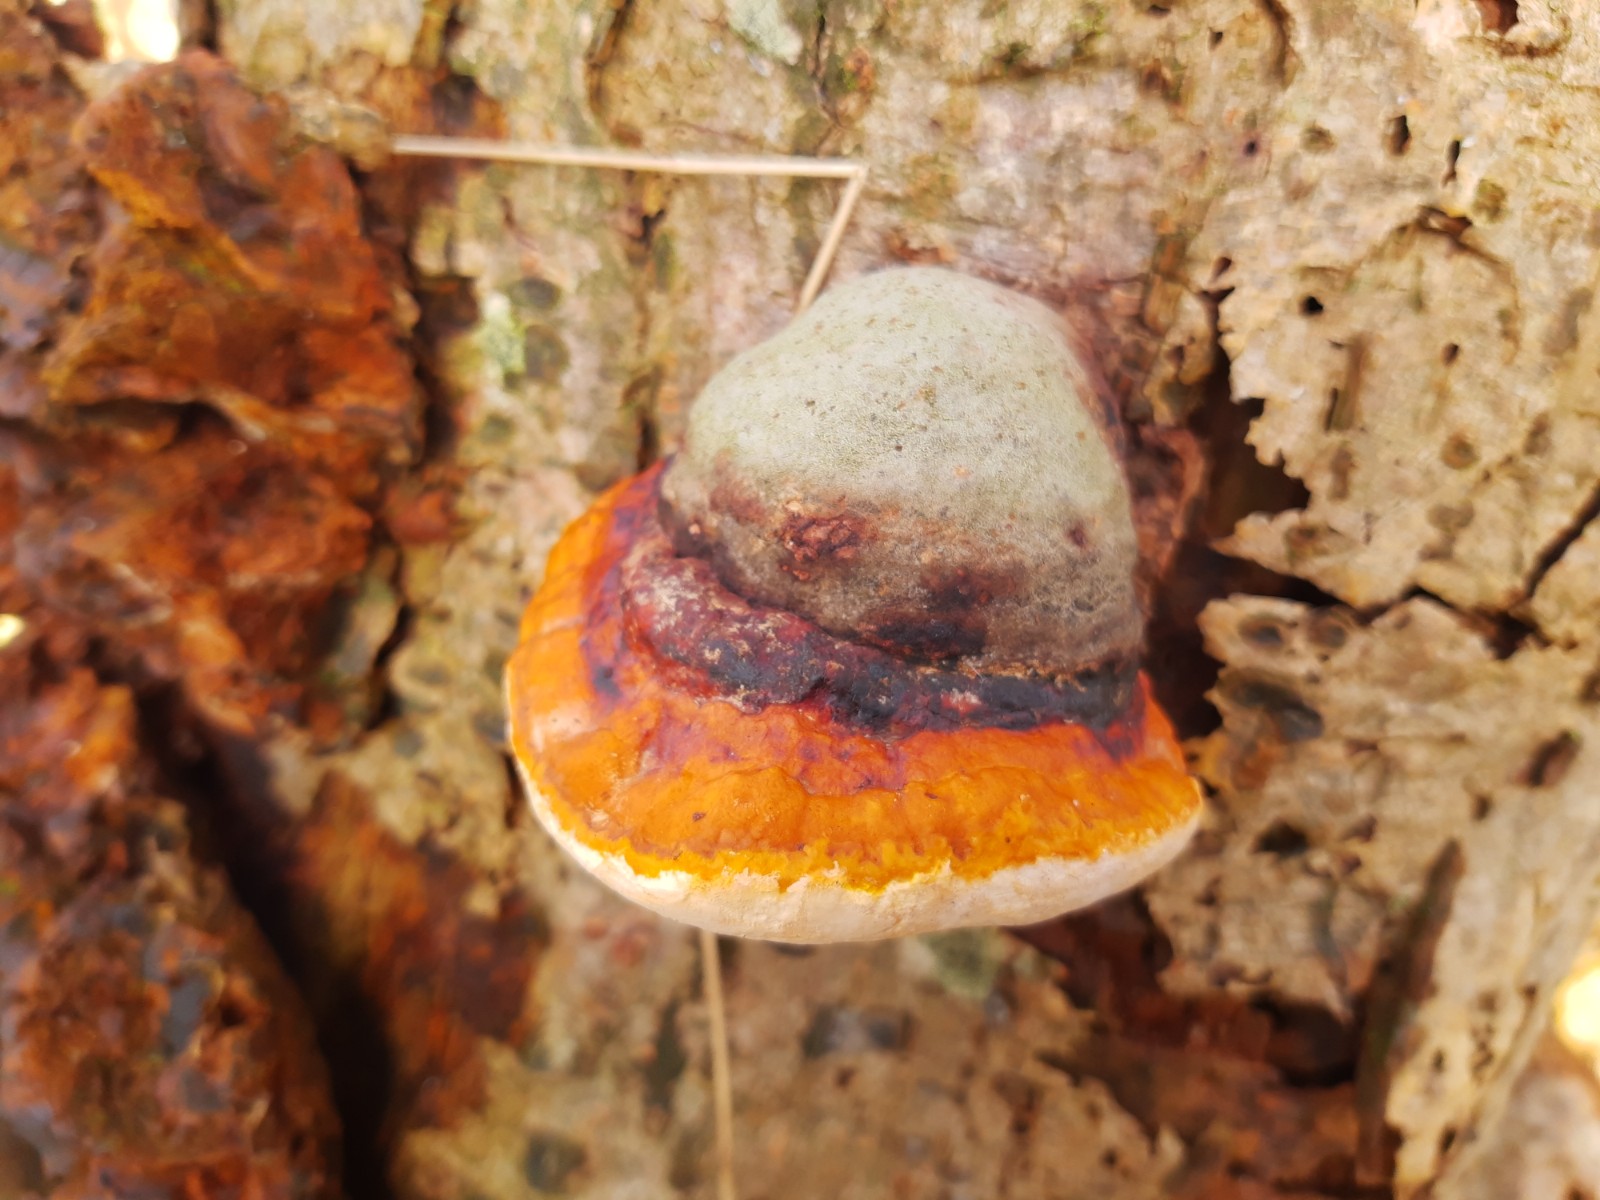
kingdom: Fungi
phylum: Basidiomycota
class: Agaricomycetes
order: Polyporales
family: Fomitopsidaceae
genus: Fomitopsis
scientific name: Fomitopsis pinicola
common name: randbæltet hovporesvamp
